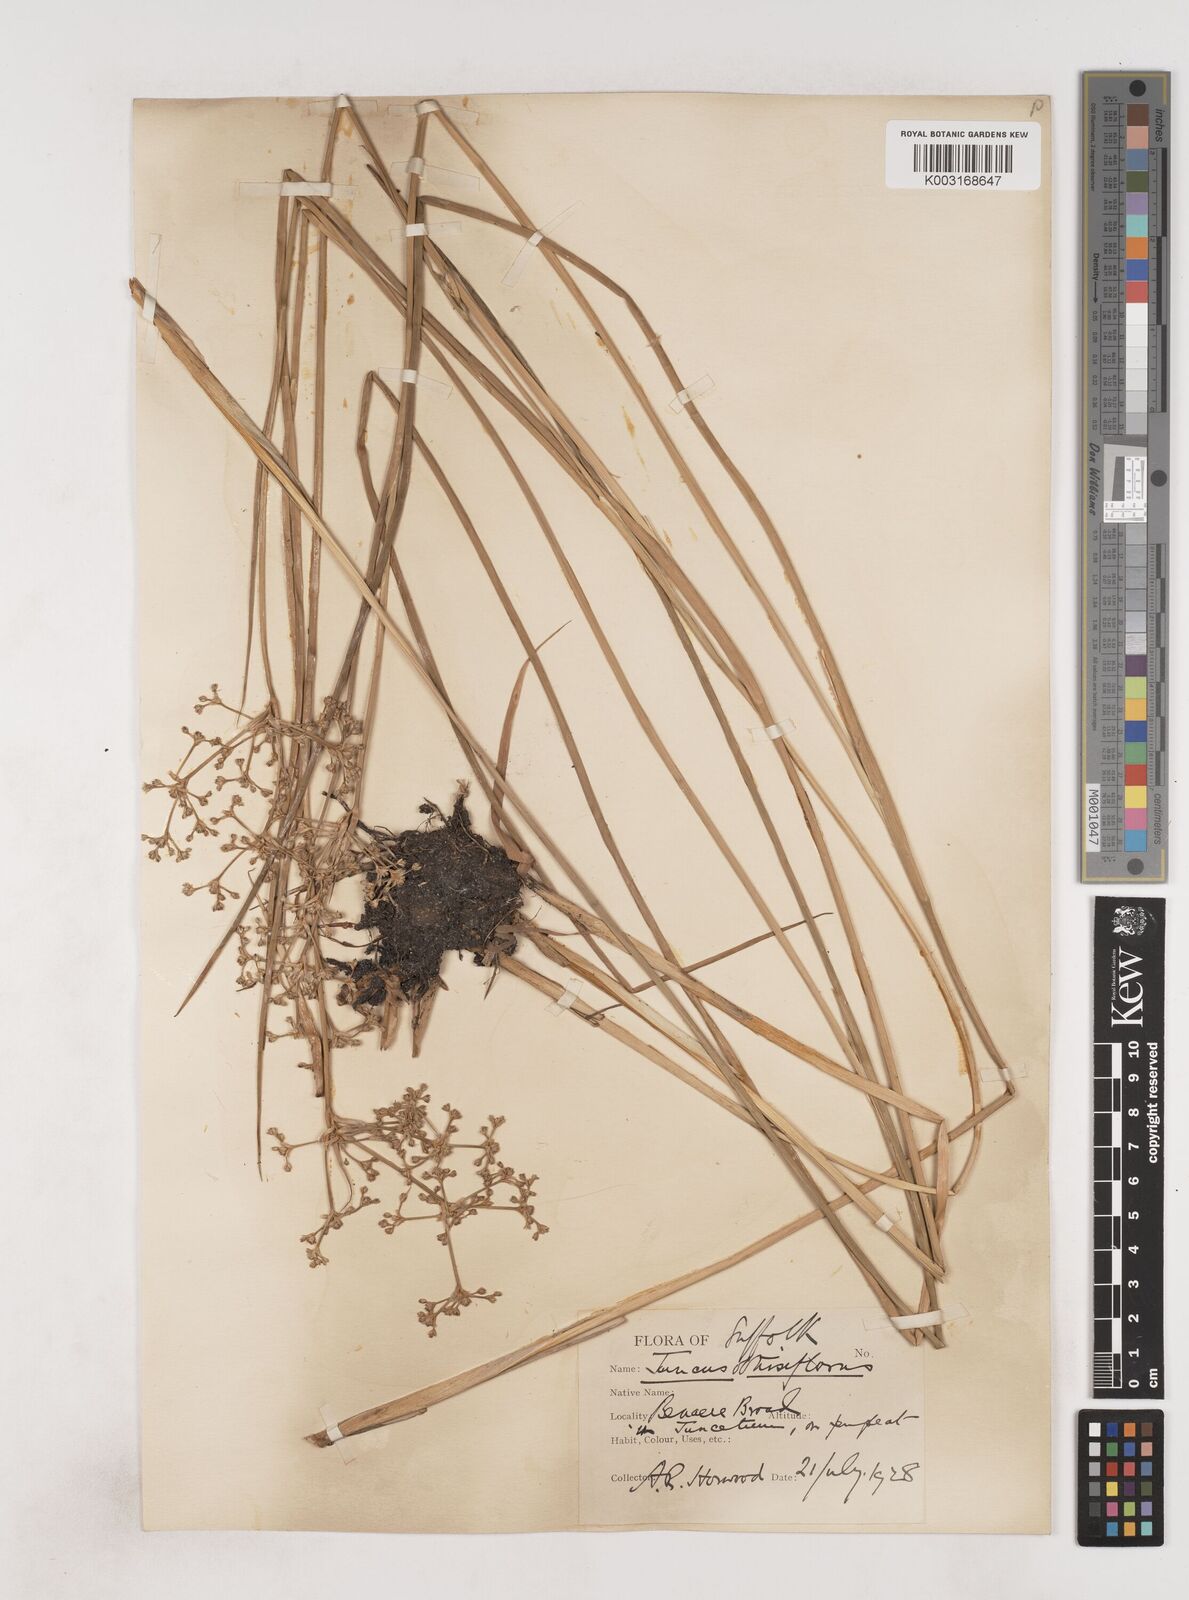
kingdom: Plantae
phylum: Tracheophyta
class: Liliopsida
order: Poales
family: Juncaceae
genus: Juncus
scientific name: Juncus subnodulosus
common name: Blunt-flowered rush
